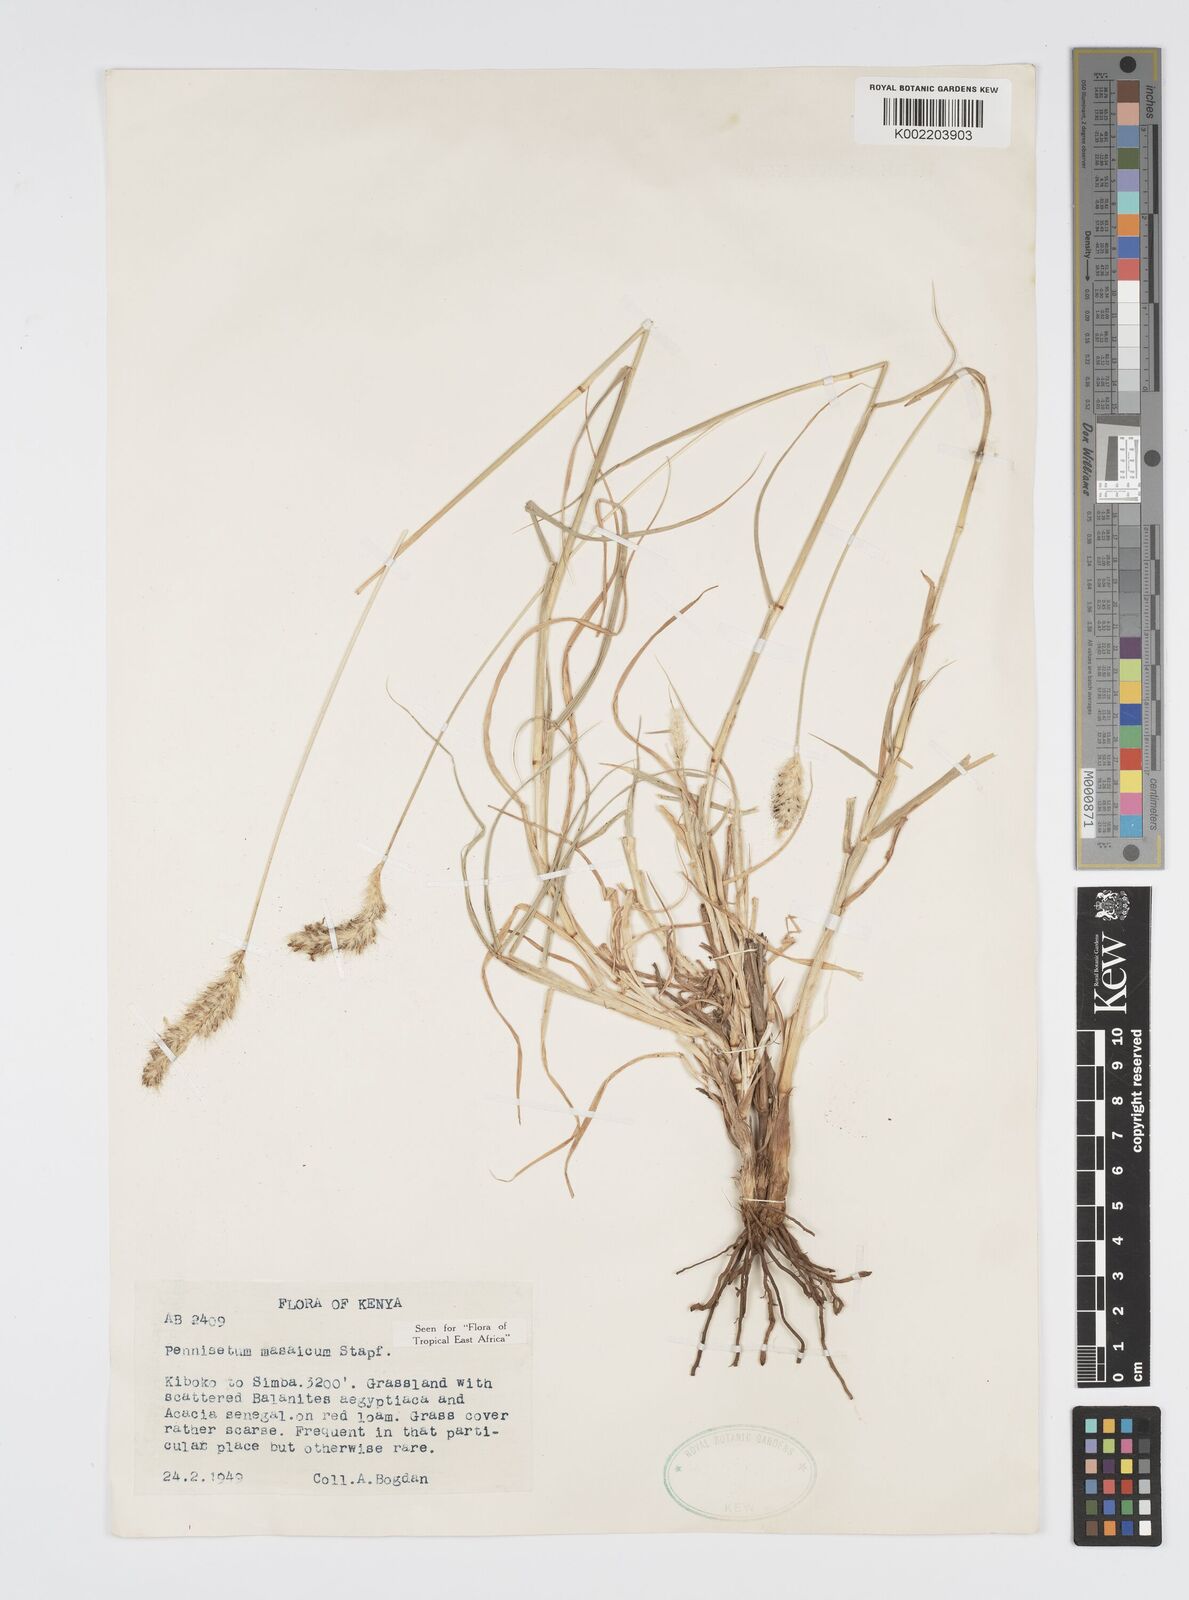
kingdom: Plantae
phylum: Tracheophyta
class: Liliopsida
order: Poales
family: Poaceae
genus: Cenchrus
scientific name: Cenchrus massaicus
